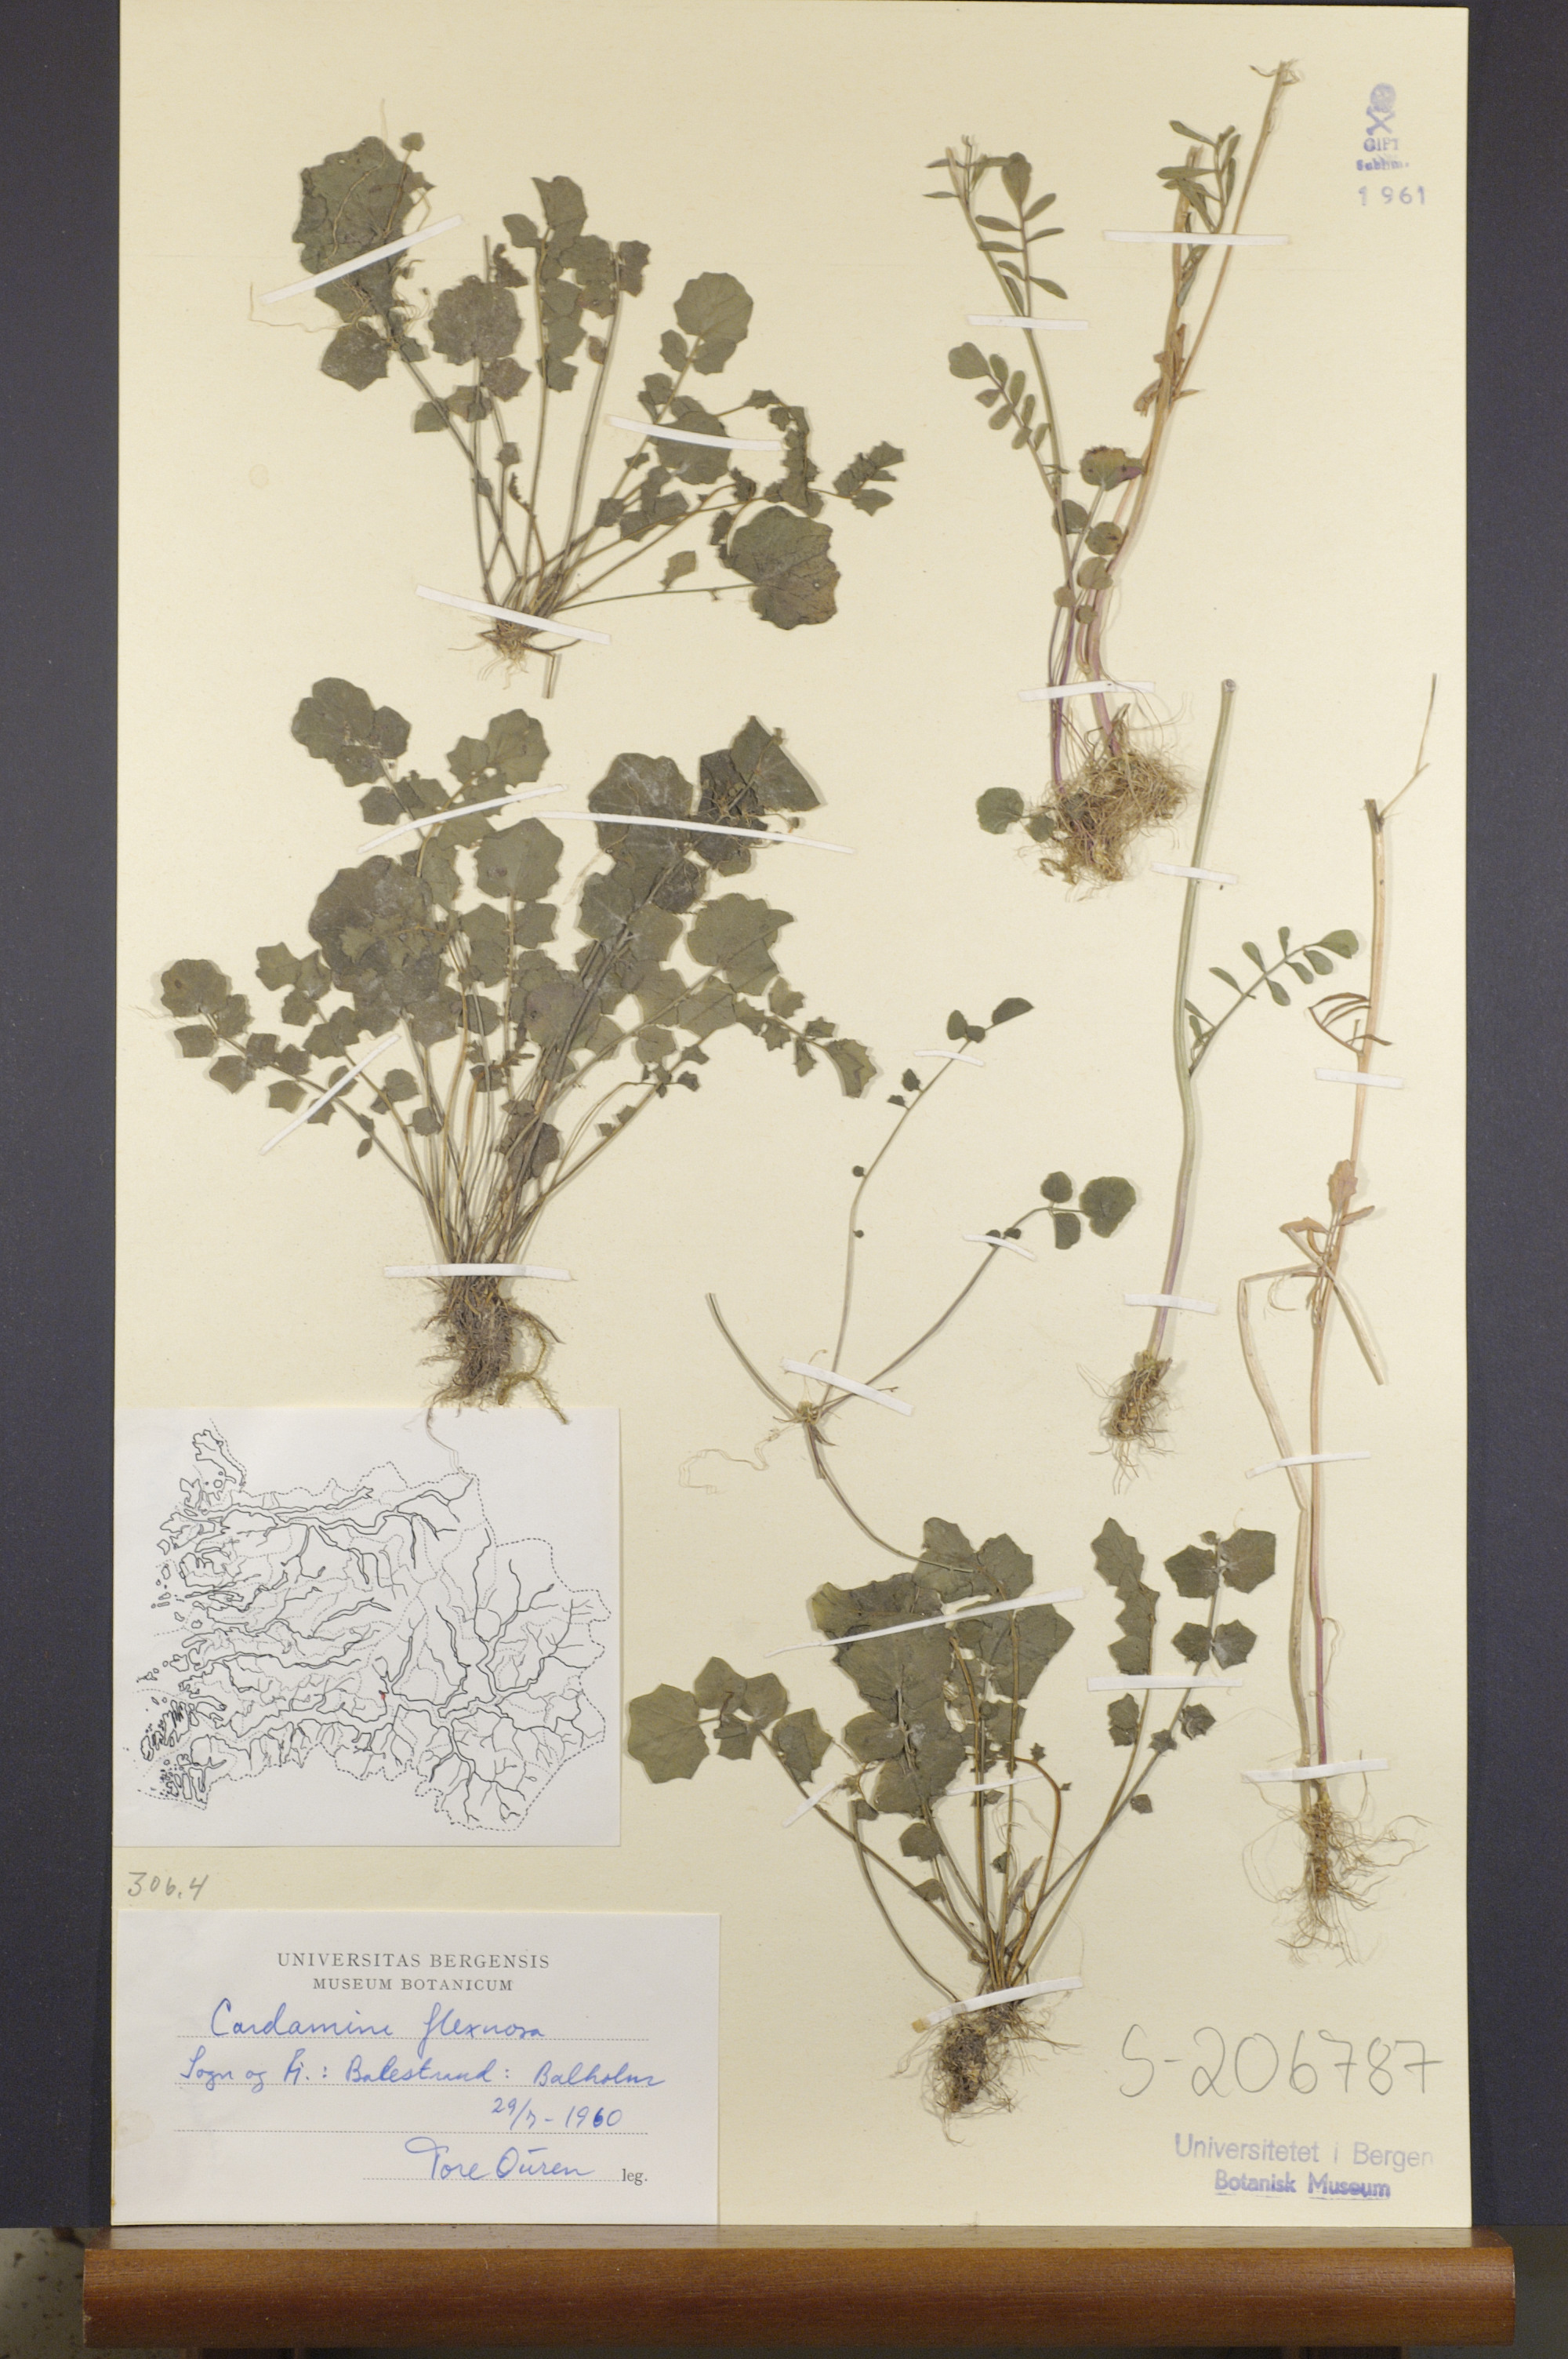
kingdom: Plantae
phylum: Tracheophyta
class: Magnoliopsida
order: Brassicales
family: Brassicaceae
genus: Cardamine
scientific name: Cardamine flexuosa
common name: Woodland bittercress
